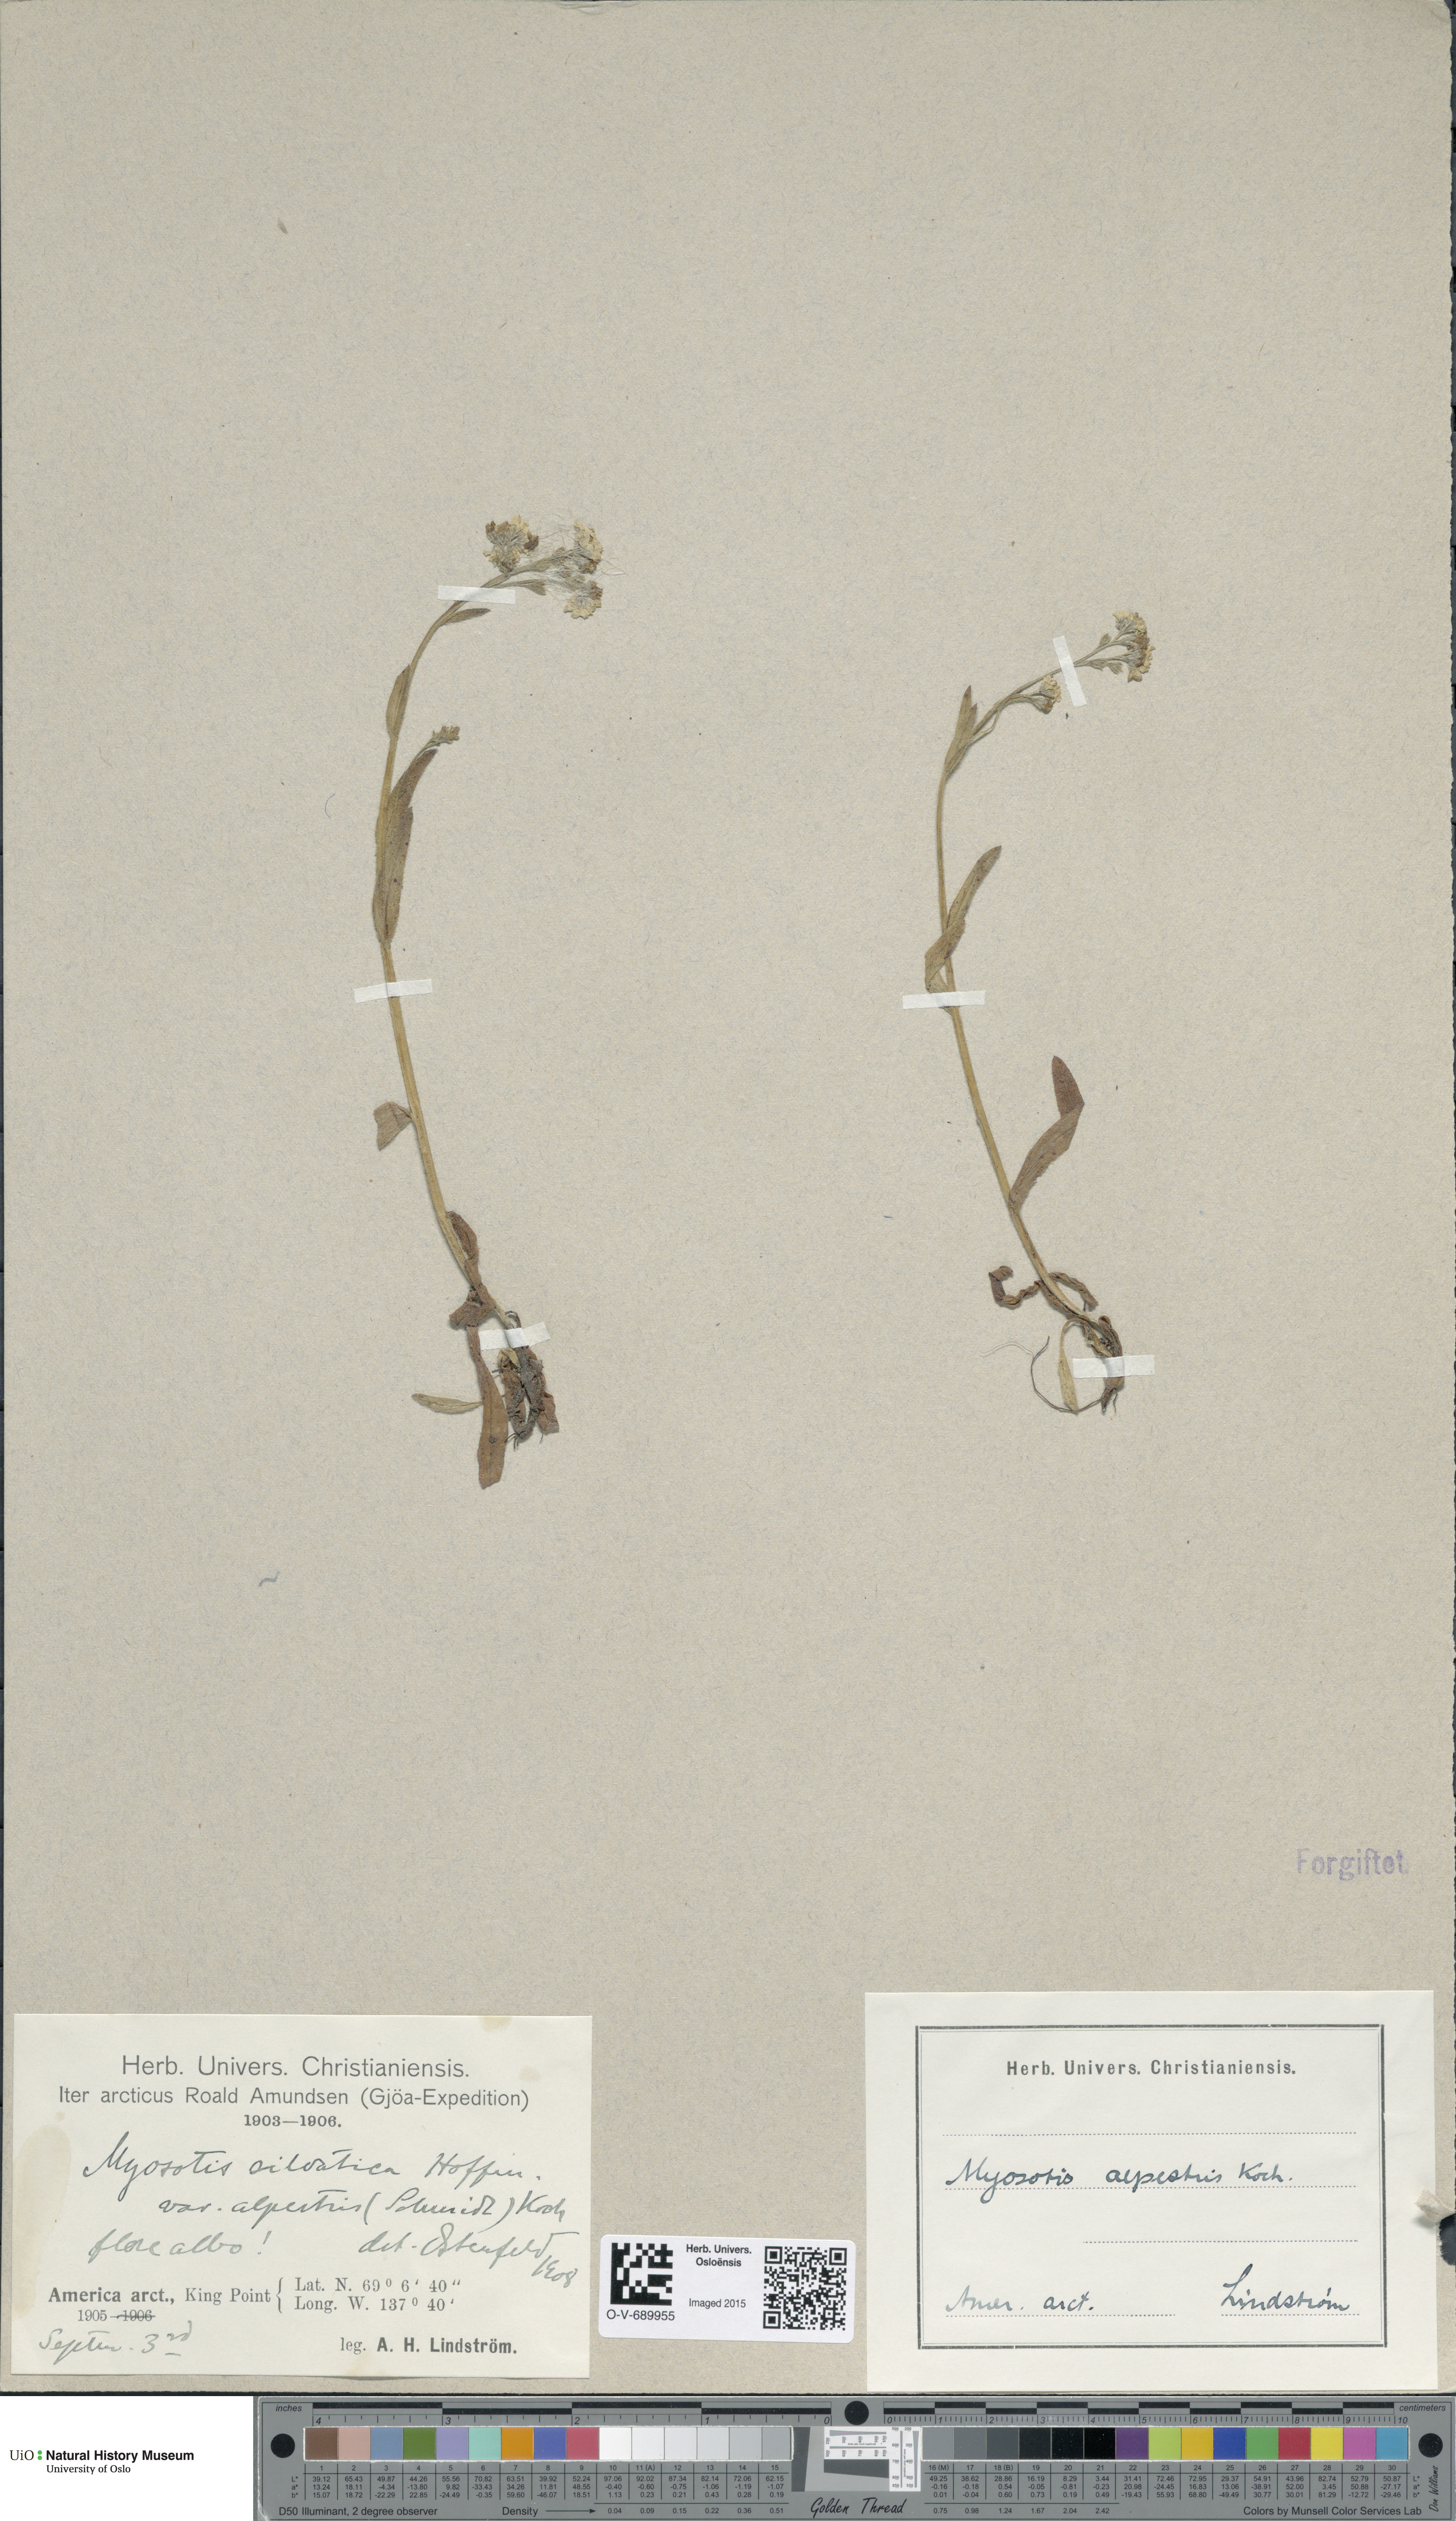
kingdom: Plantae
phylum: Tracheophyta
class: Magnoliopsida
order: Boraginales
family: Boraginaceae
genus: Myosotis
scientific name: Myosotis alpestris
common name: Alpine forget-me-not
